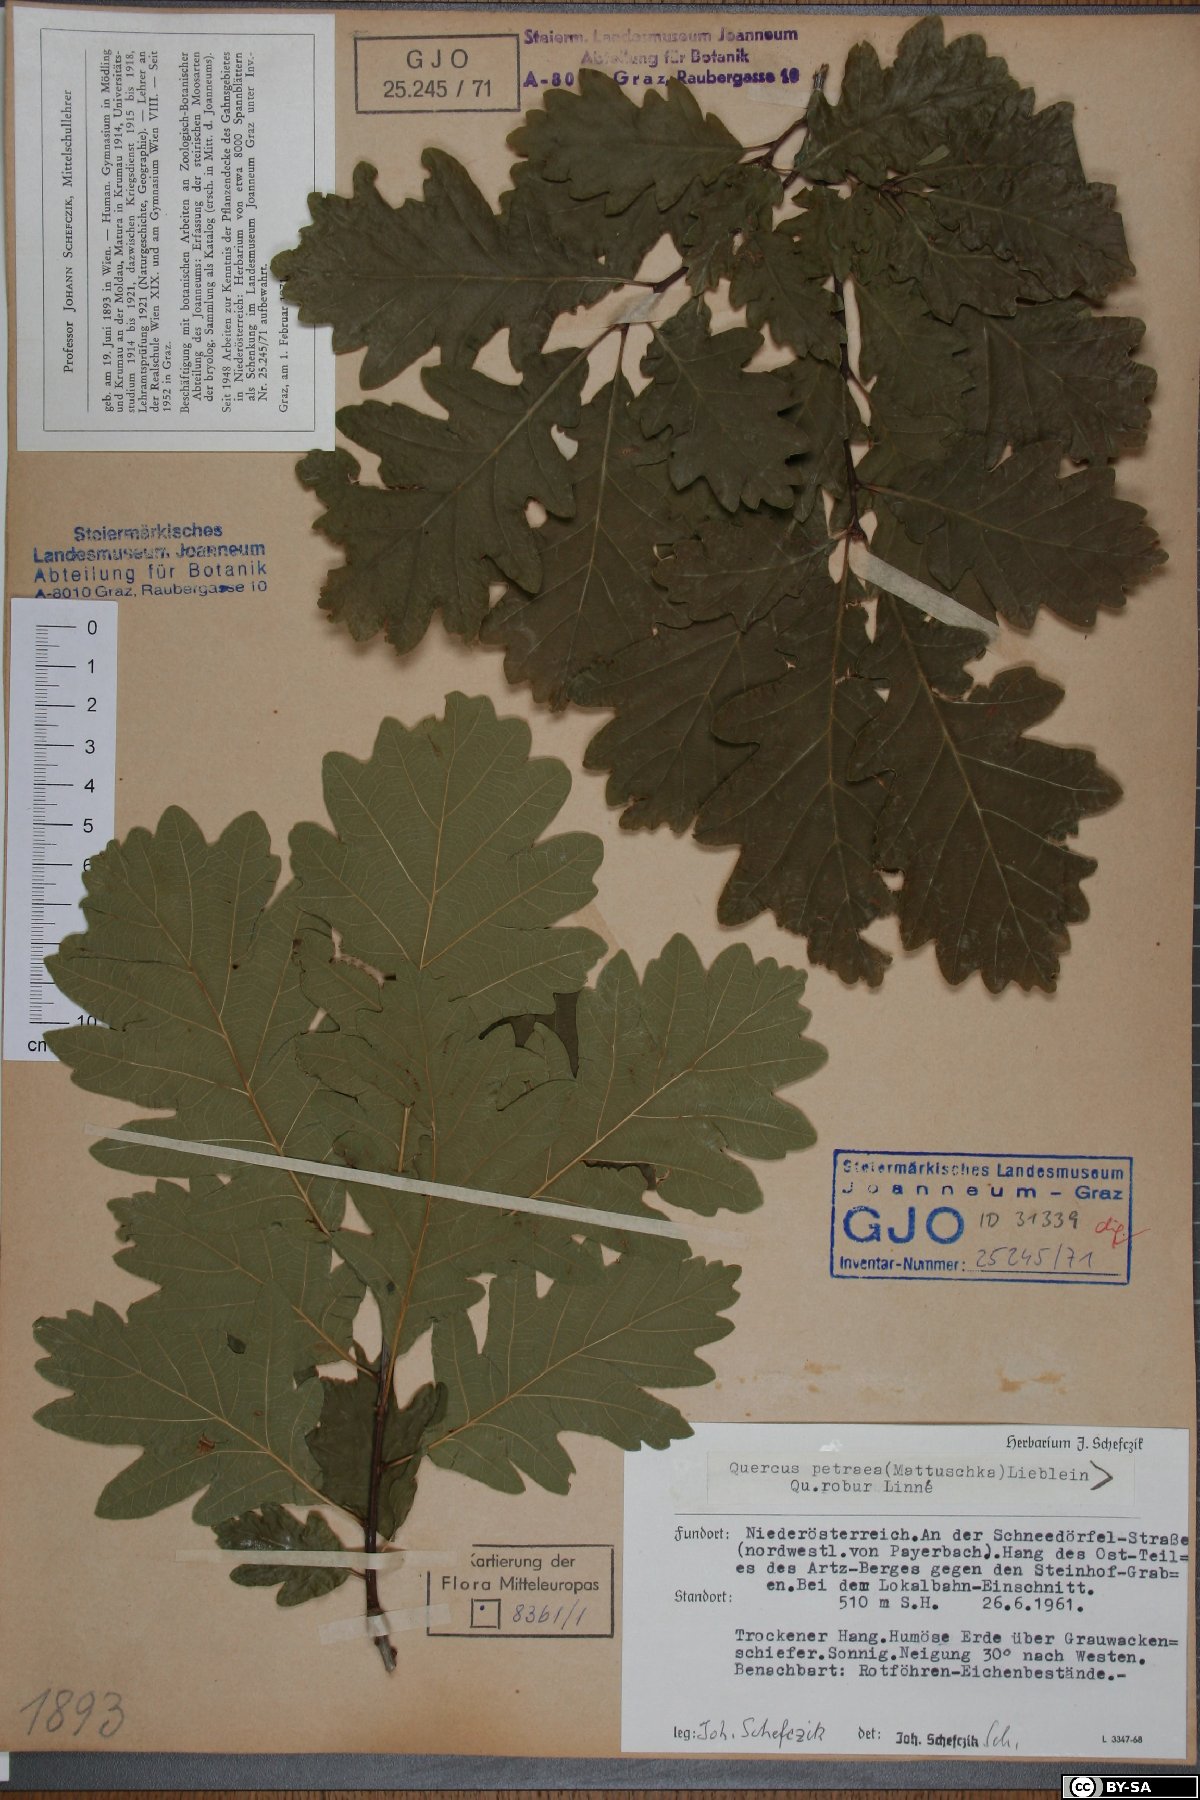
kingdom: Plantae
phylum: Tracheophyta
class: Magnoliopsida
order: Fagales
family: Fagaceae
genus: Quercus
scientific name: Quercus petraea
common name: Sessile oak
